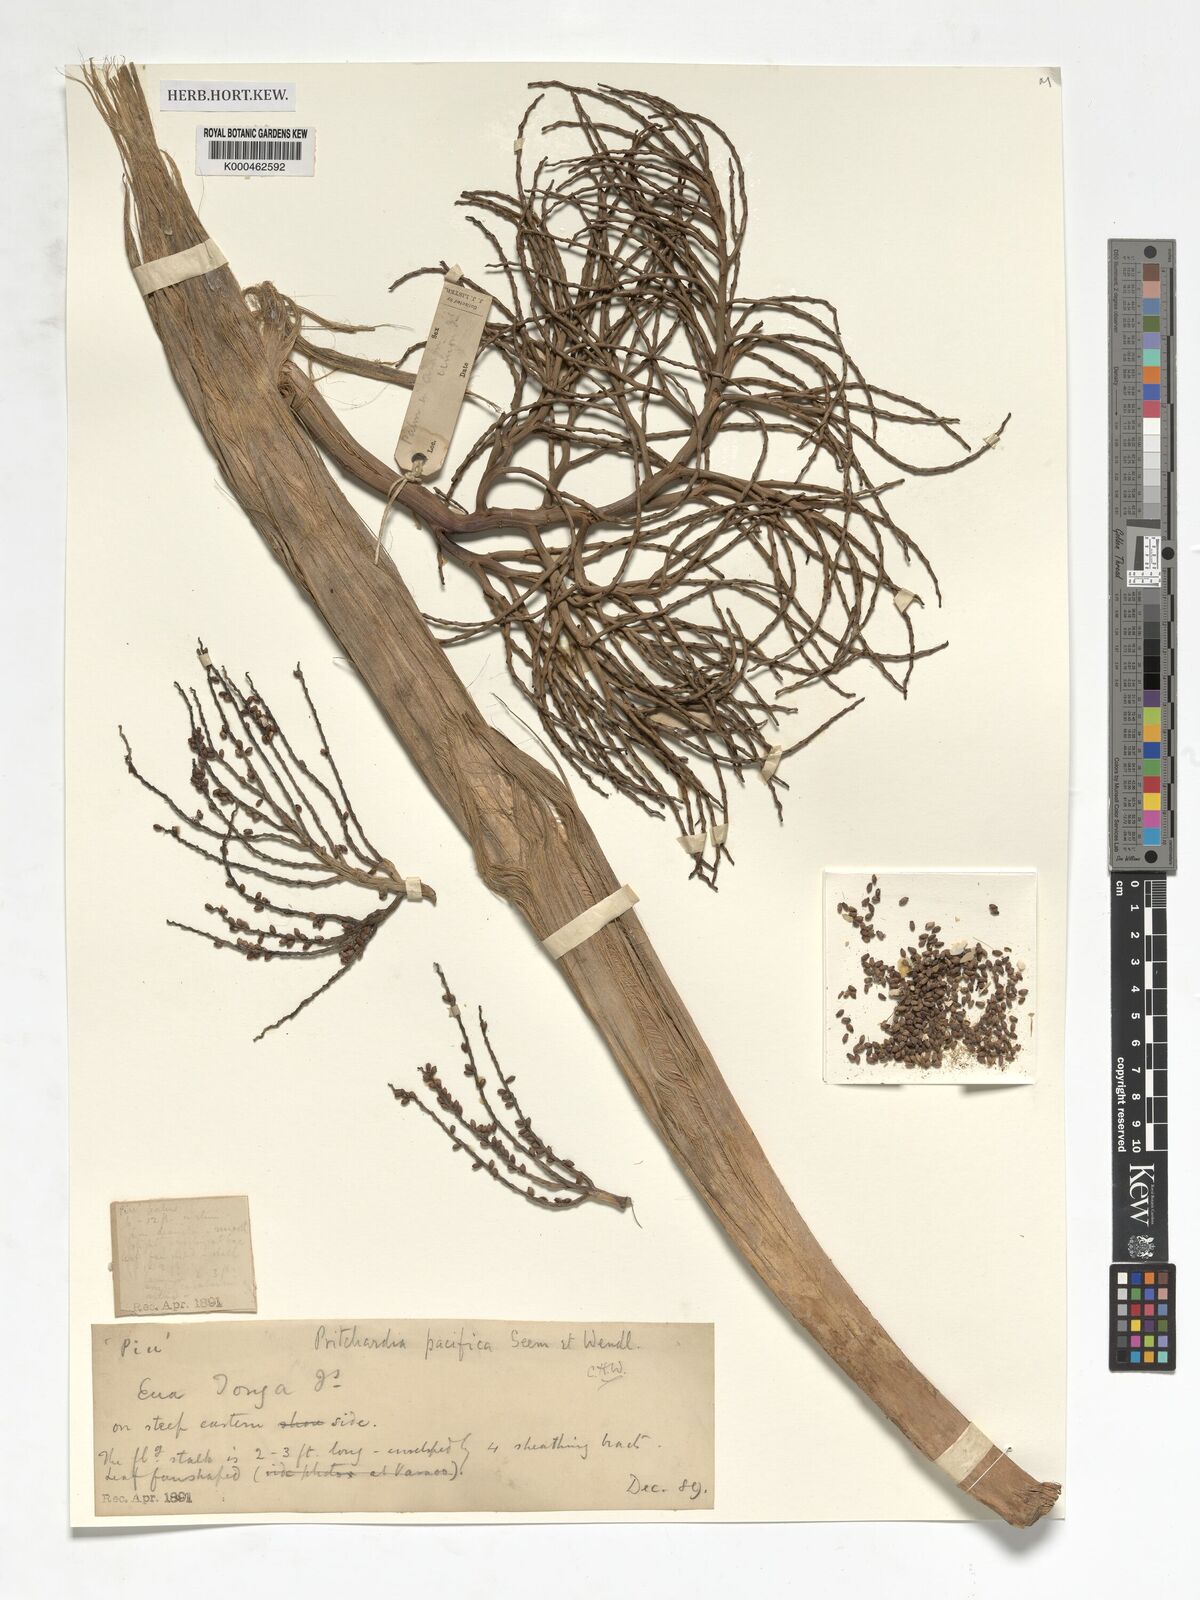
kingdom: Plantae
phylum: Tracheophyta
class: Liliopsida
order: Arecales
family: Arecaceae
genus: Pritchardia
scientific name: Pritchardia pacifica
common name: Fiji fan palm
